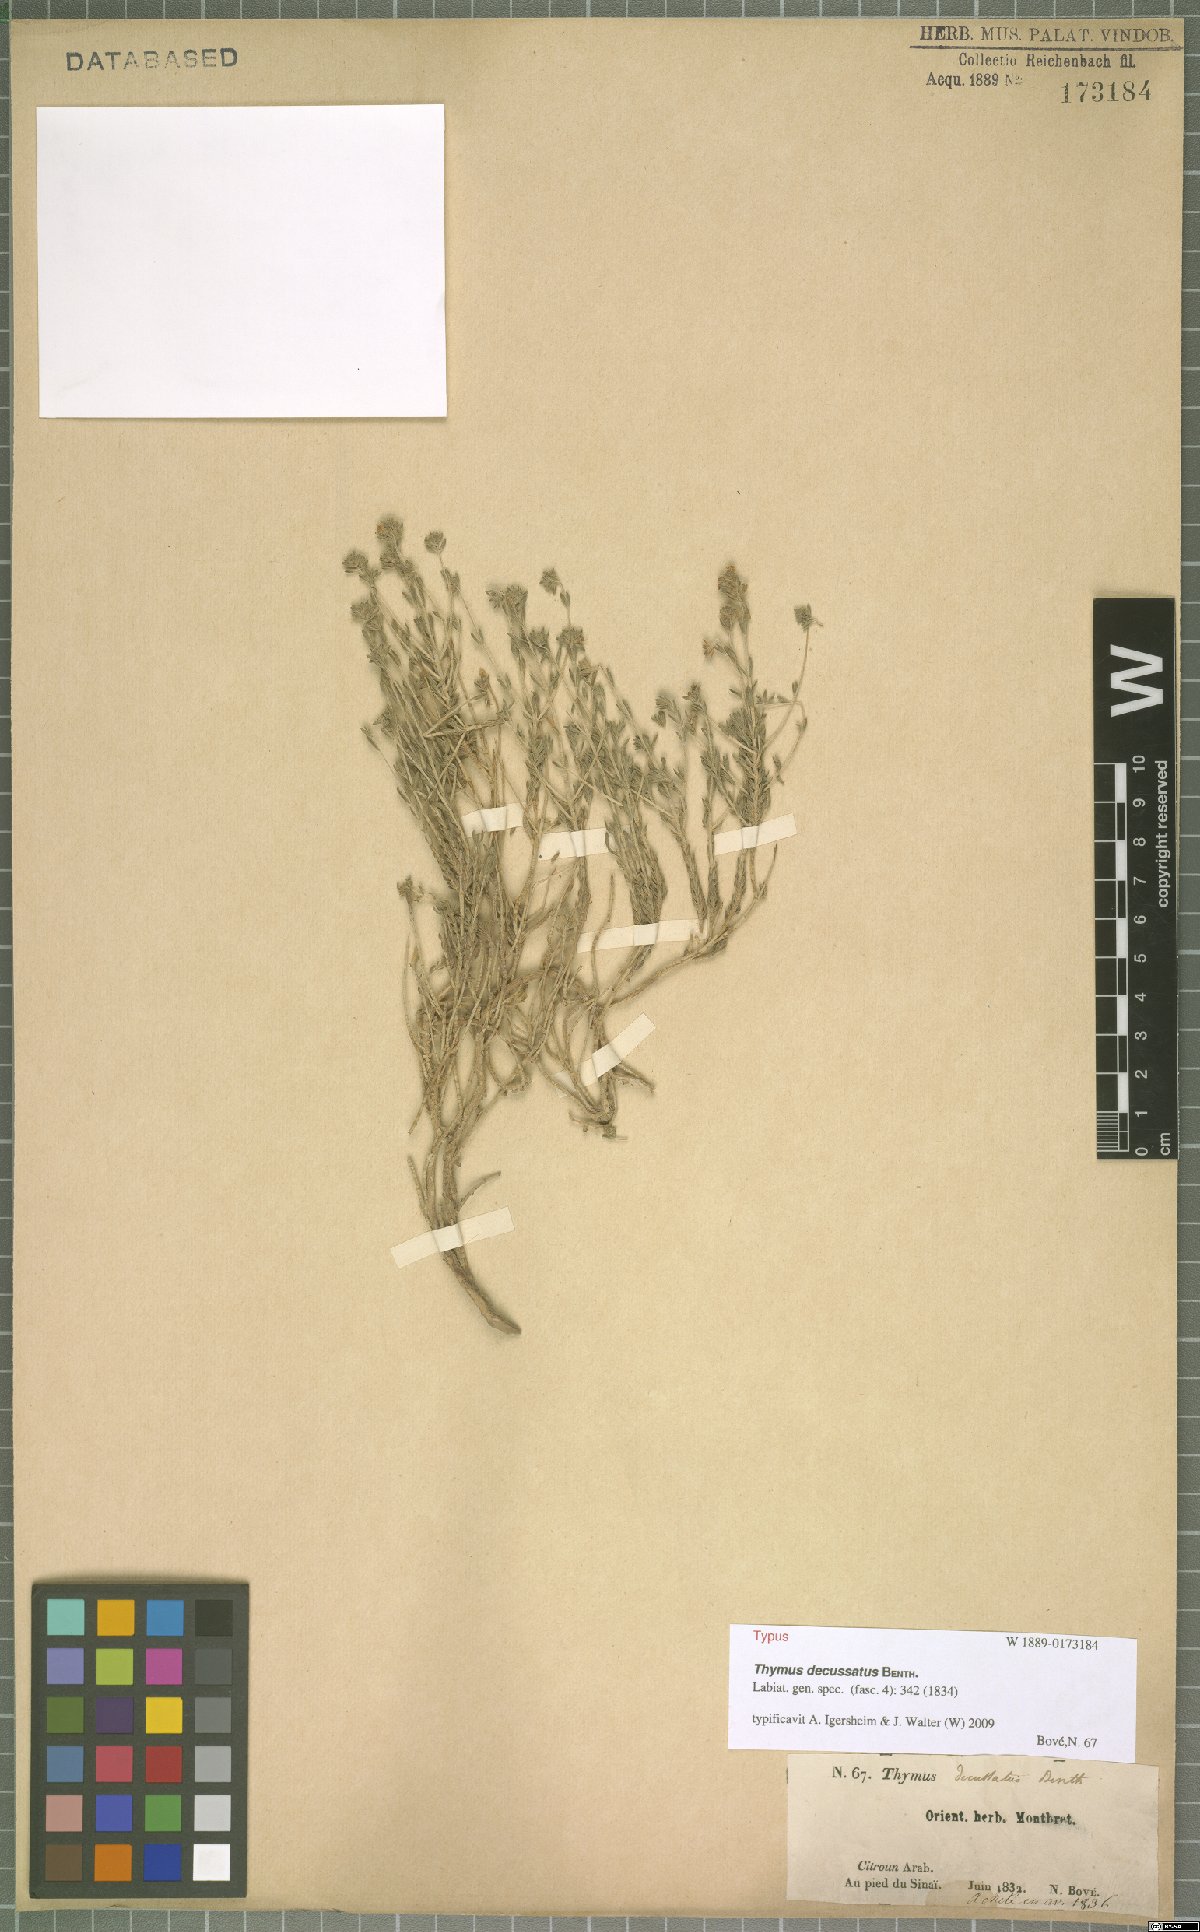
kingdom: Plantae
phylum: Tracheophyta
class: Magnoliopsida
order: Lamiales
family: Lamiaceae
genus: Thymus
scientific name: Thymus decussatus
